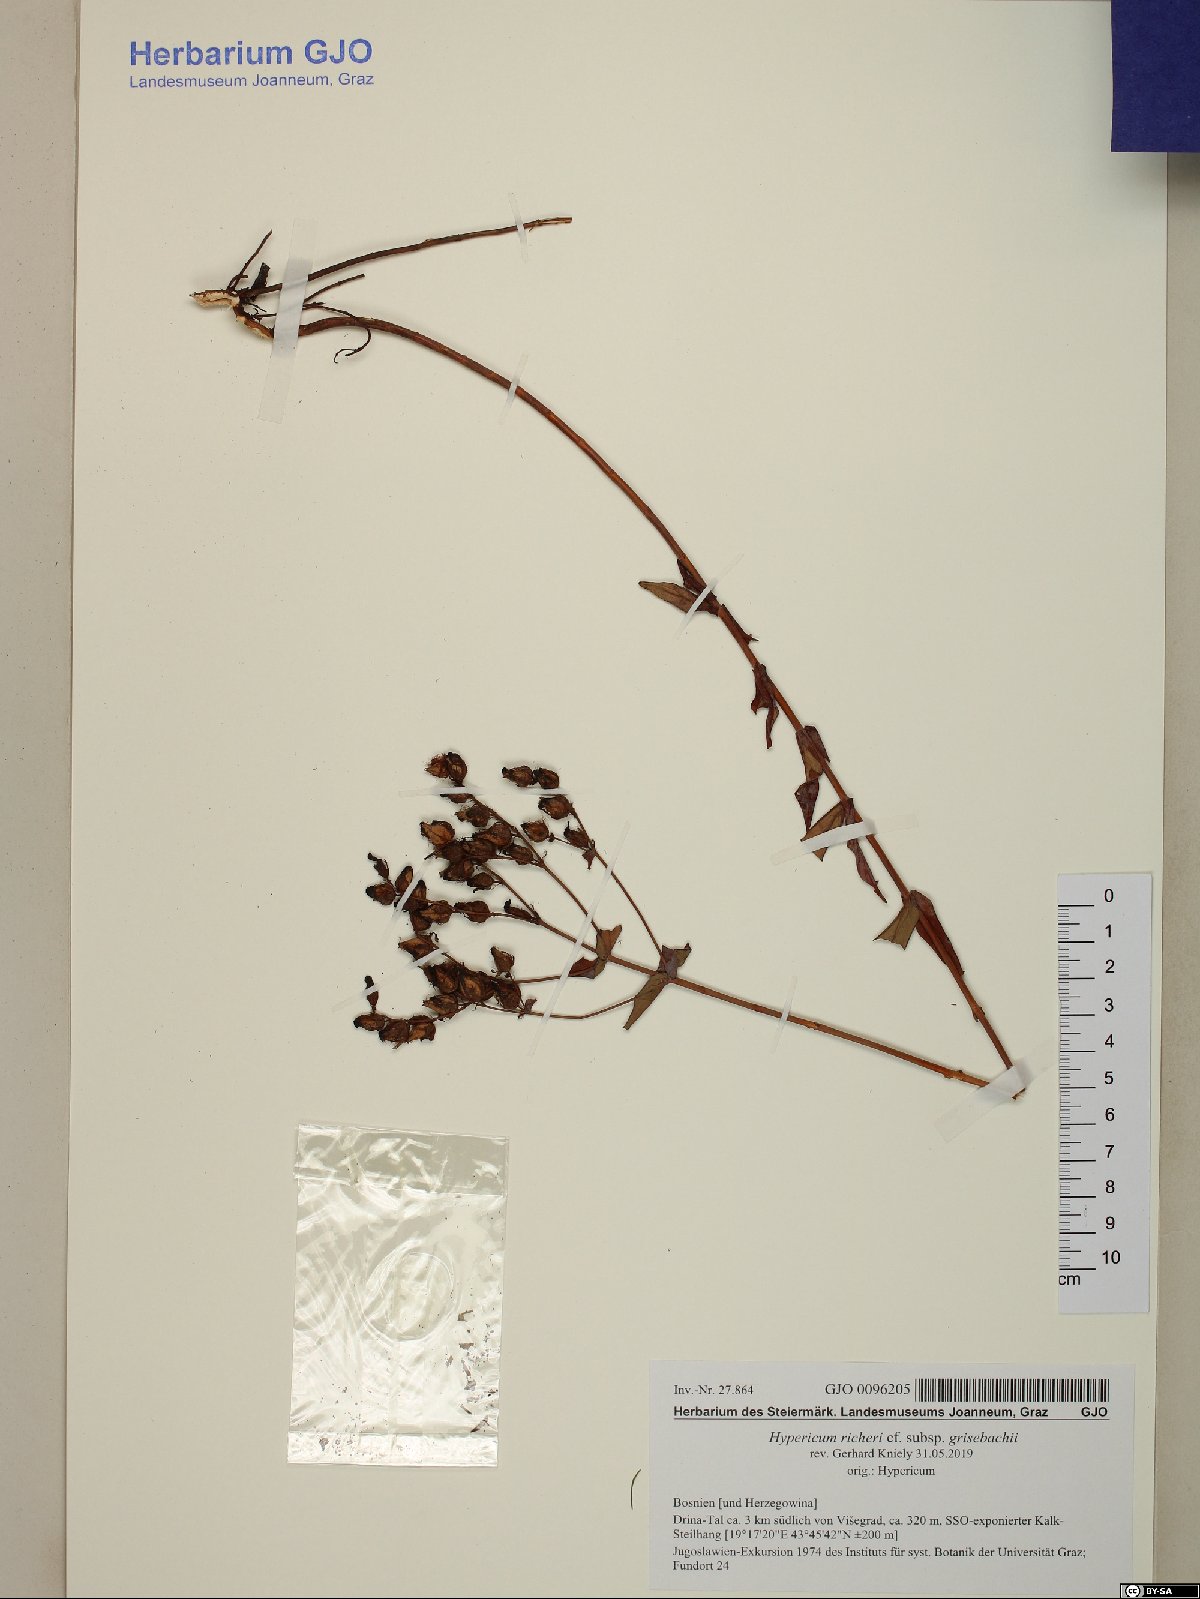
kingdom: Plantae
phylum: Tracheophyta
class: Magnoliopsida
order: Malpighiales
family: Hypericaceae
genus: Hypericum
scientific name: Hypericum richeri
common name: Alpine st john's-wort
